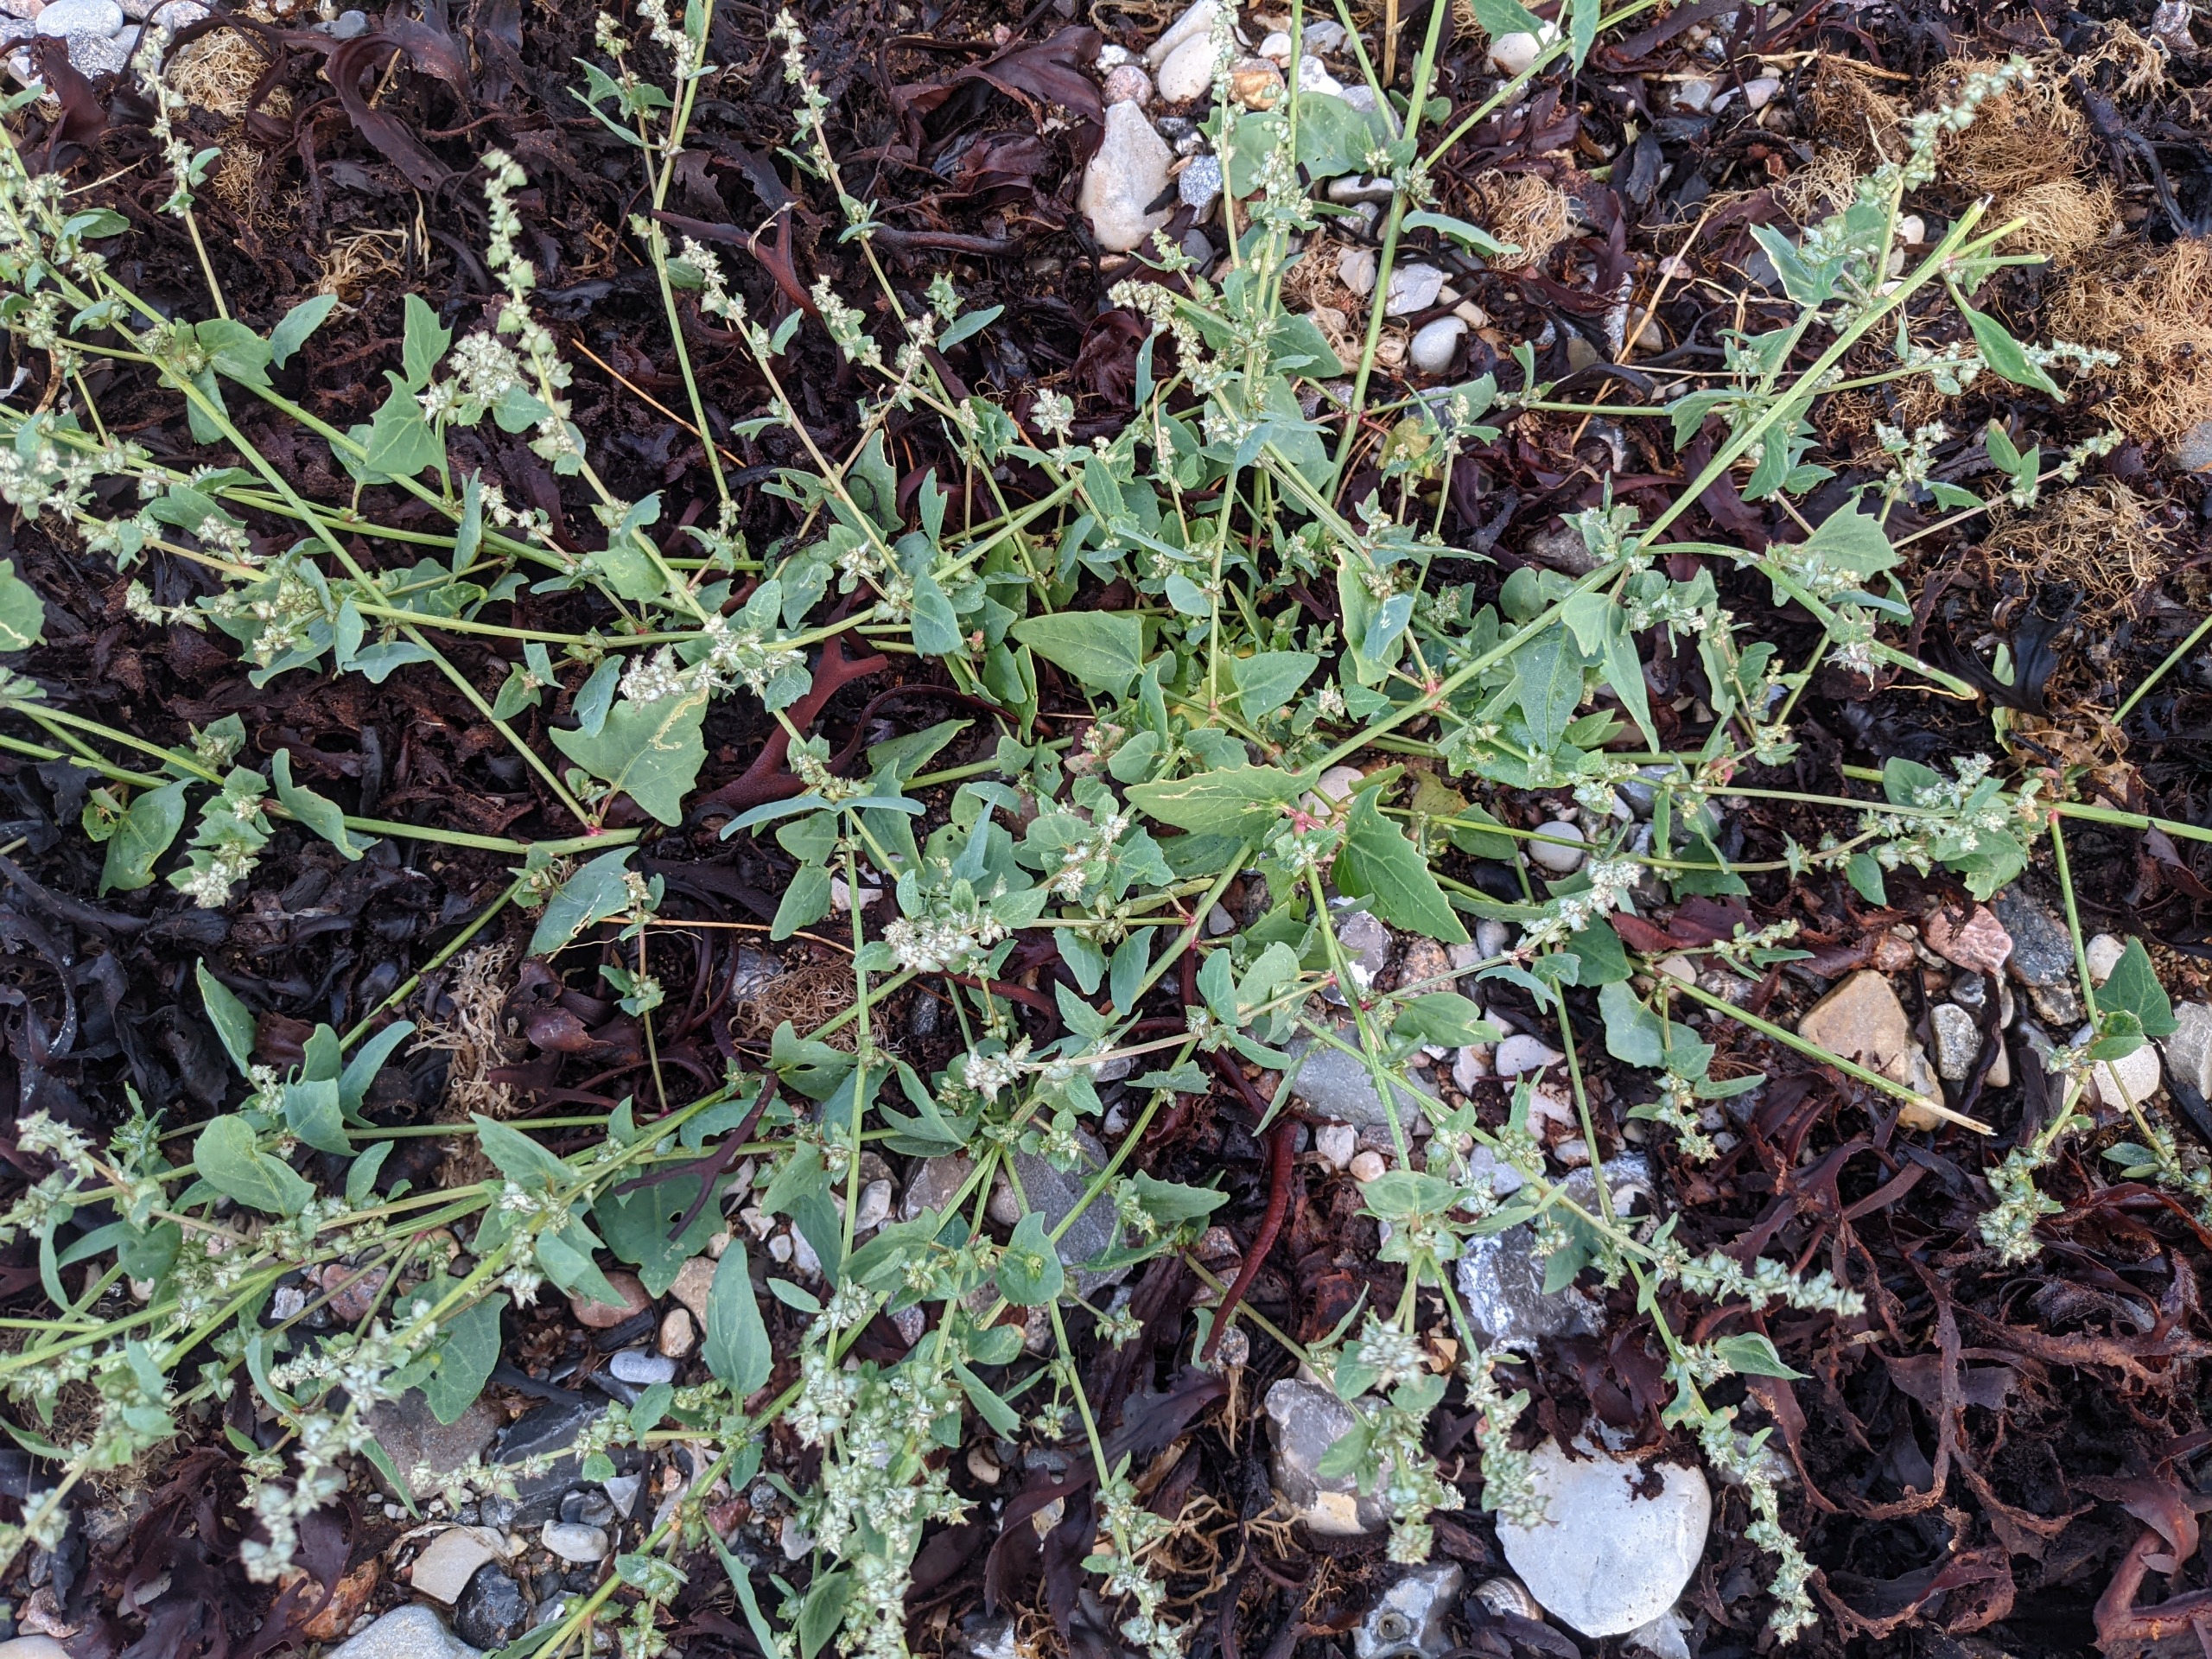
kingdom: Plantae
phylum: Tracheophyta
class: Magnoliopsida
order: Caryophyllales
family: Amaranthaceae
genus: Atriplex
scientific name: Atriplex prostrata
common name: Spyd-mælde
